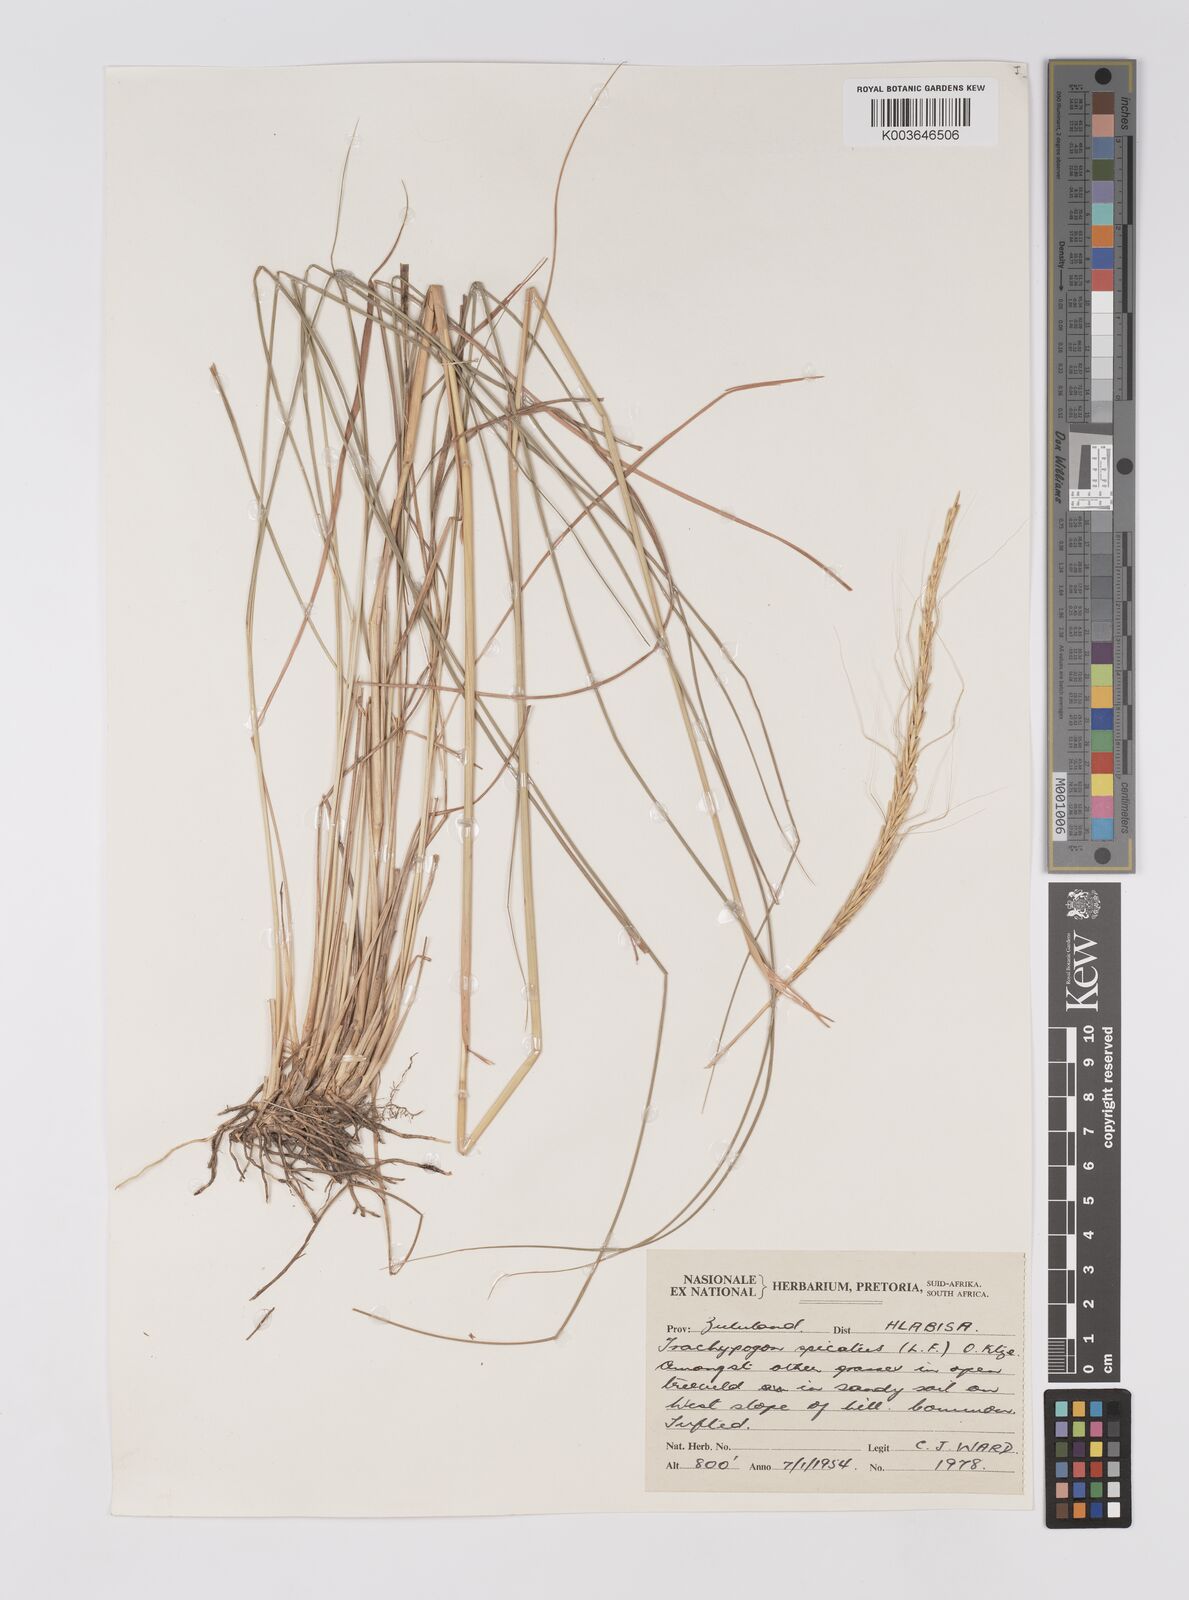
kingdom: Plantae
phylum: Tracheophyta
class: Liliopsida
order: Poales
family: Poaceae
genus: Trachypogon
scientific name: Trachypogon spicatus
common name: Crinkle-awn
